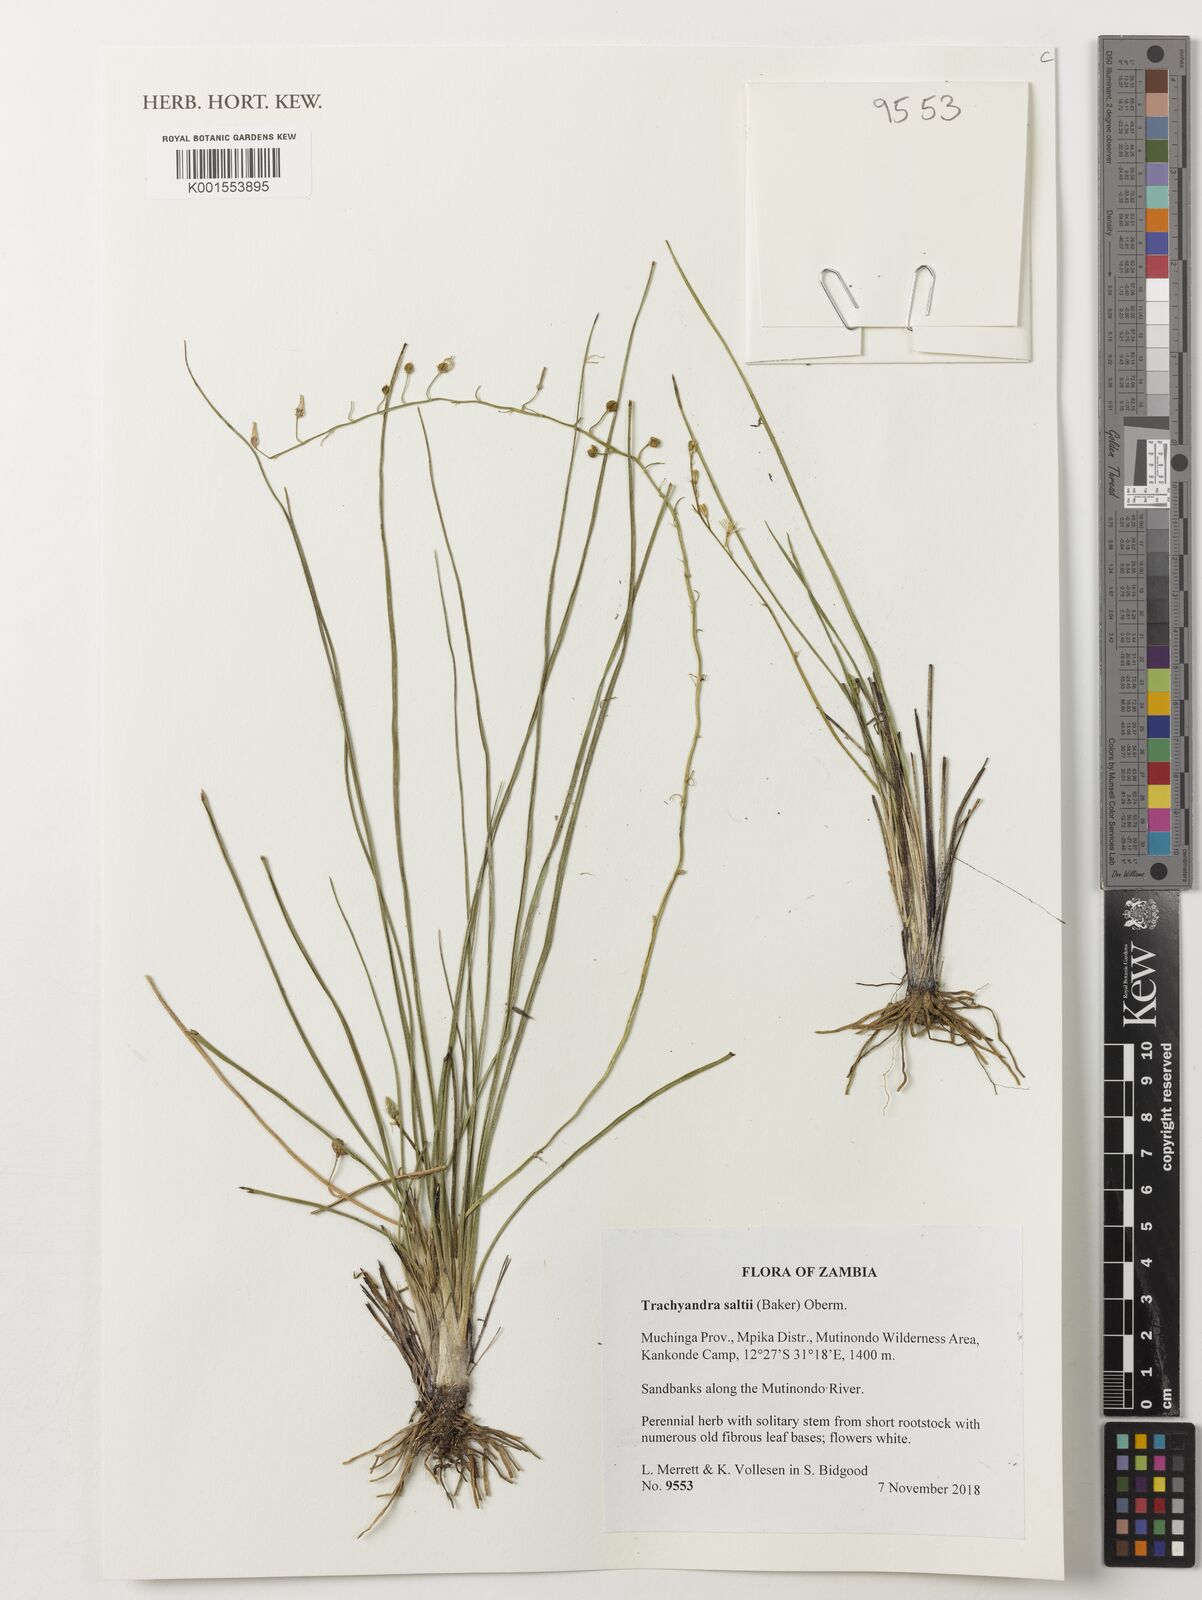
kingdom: Plantae
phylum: Tracheophyta
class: Liliopsida
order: Asparagales
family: Asphodelaceae
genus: Trachyandra
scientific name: Trachyandra saltii
